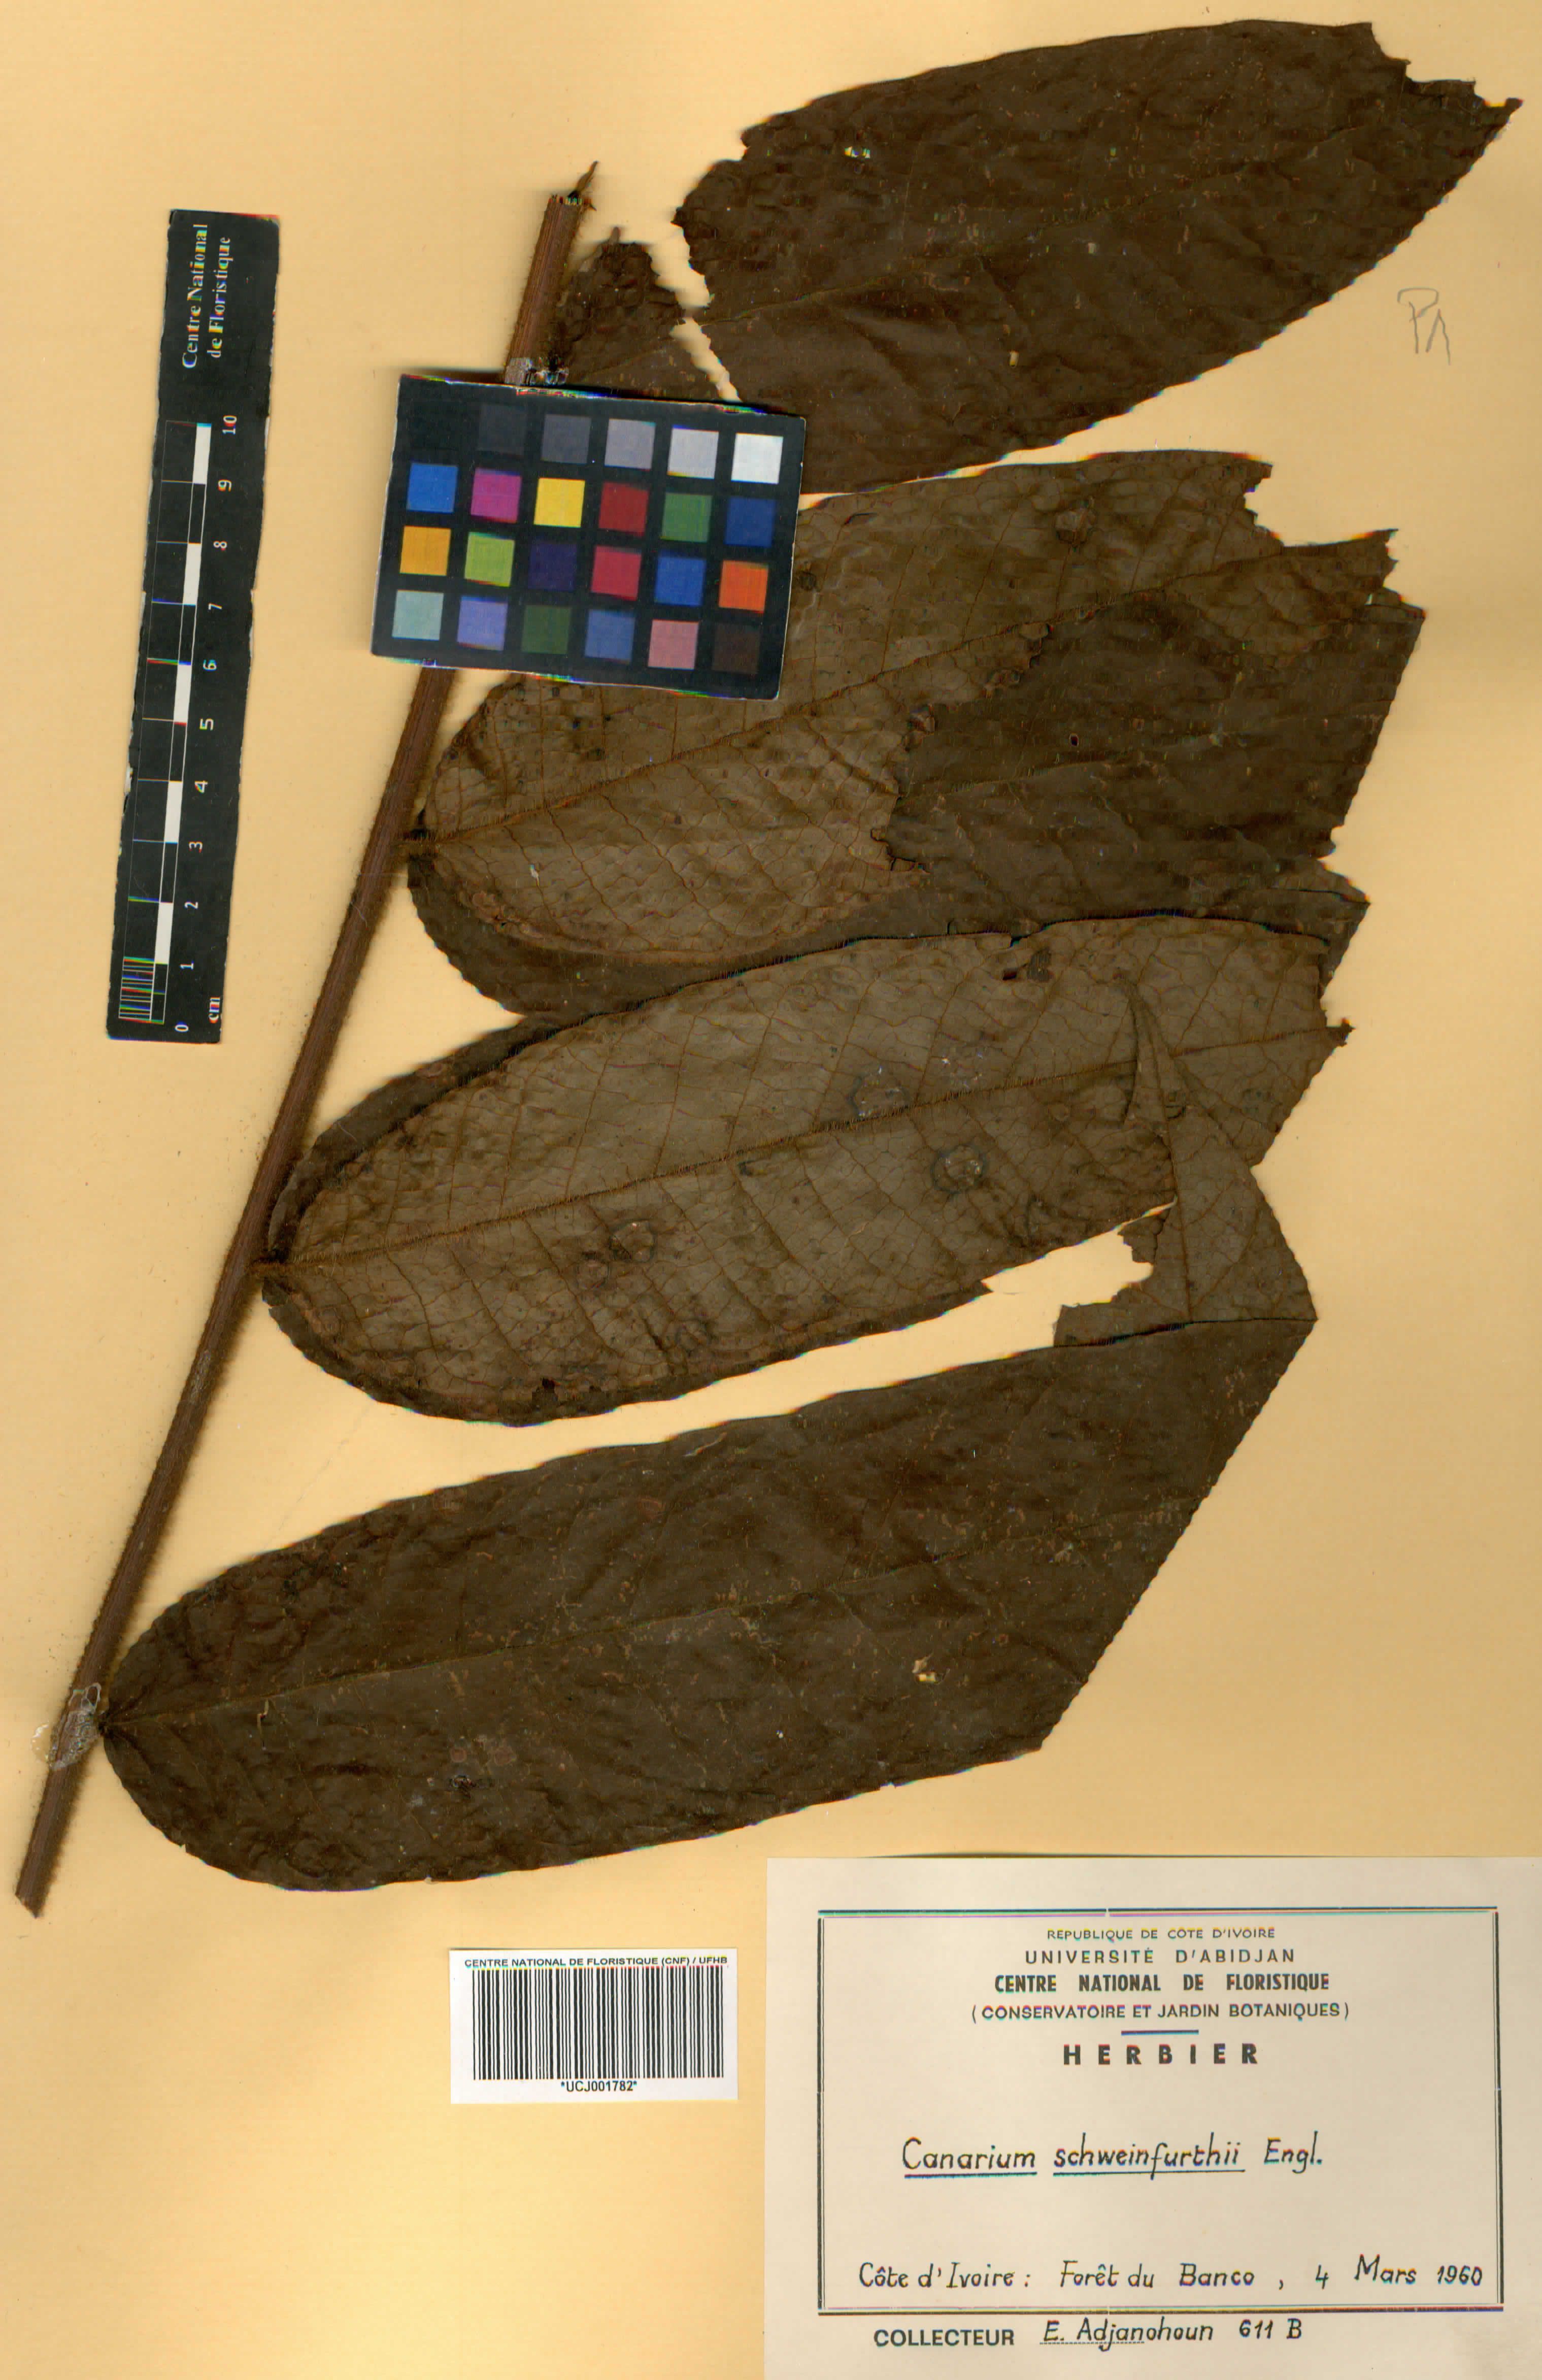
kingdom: Plantae
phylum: Tracheophyta
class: Magnoliopsida
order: Sapindales
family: Burseraceae
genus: Canarium
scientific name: Canarium schweinfurthii
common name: African elemi
